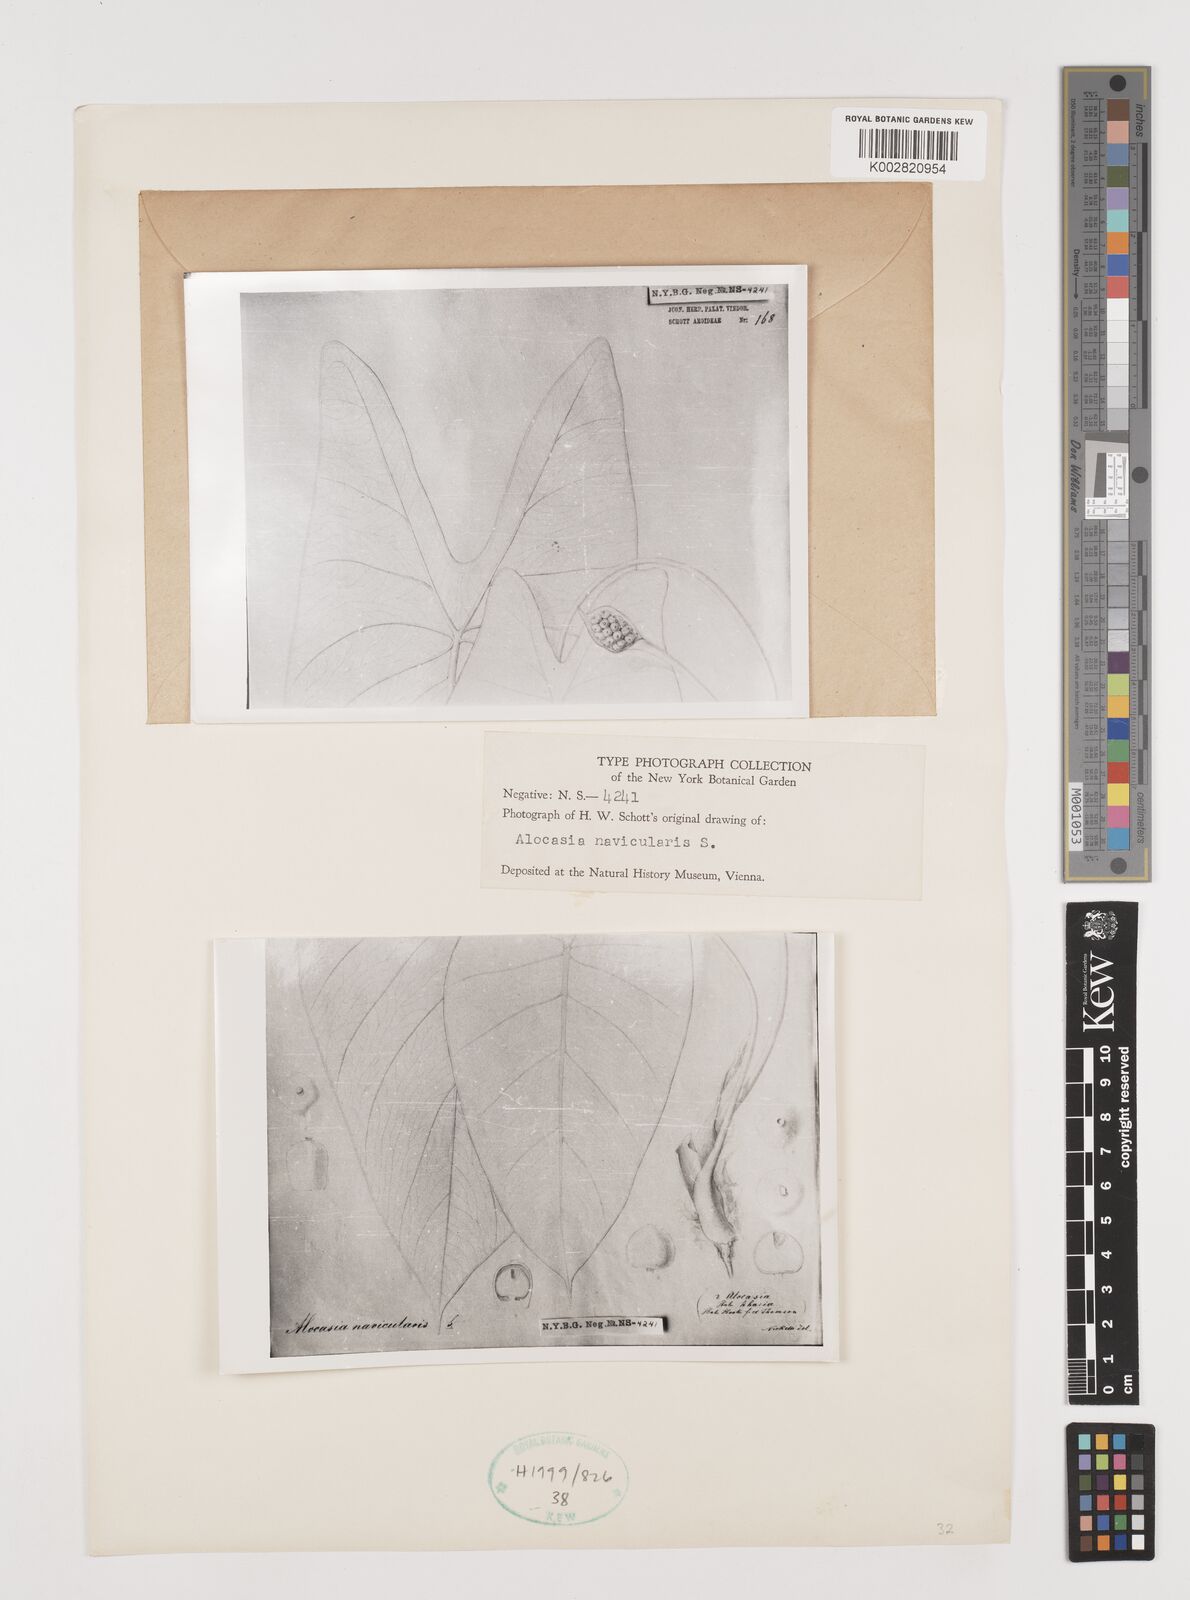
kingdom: Plantae
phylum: Tracheophyta
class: Liliopsida
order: Alismatales
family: Araceae
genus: Alocasia
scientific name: Alocasia navicularis
